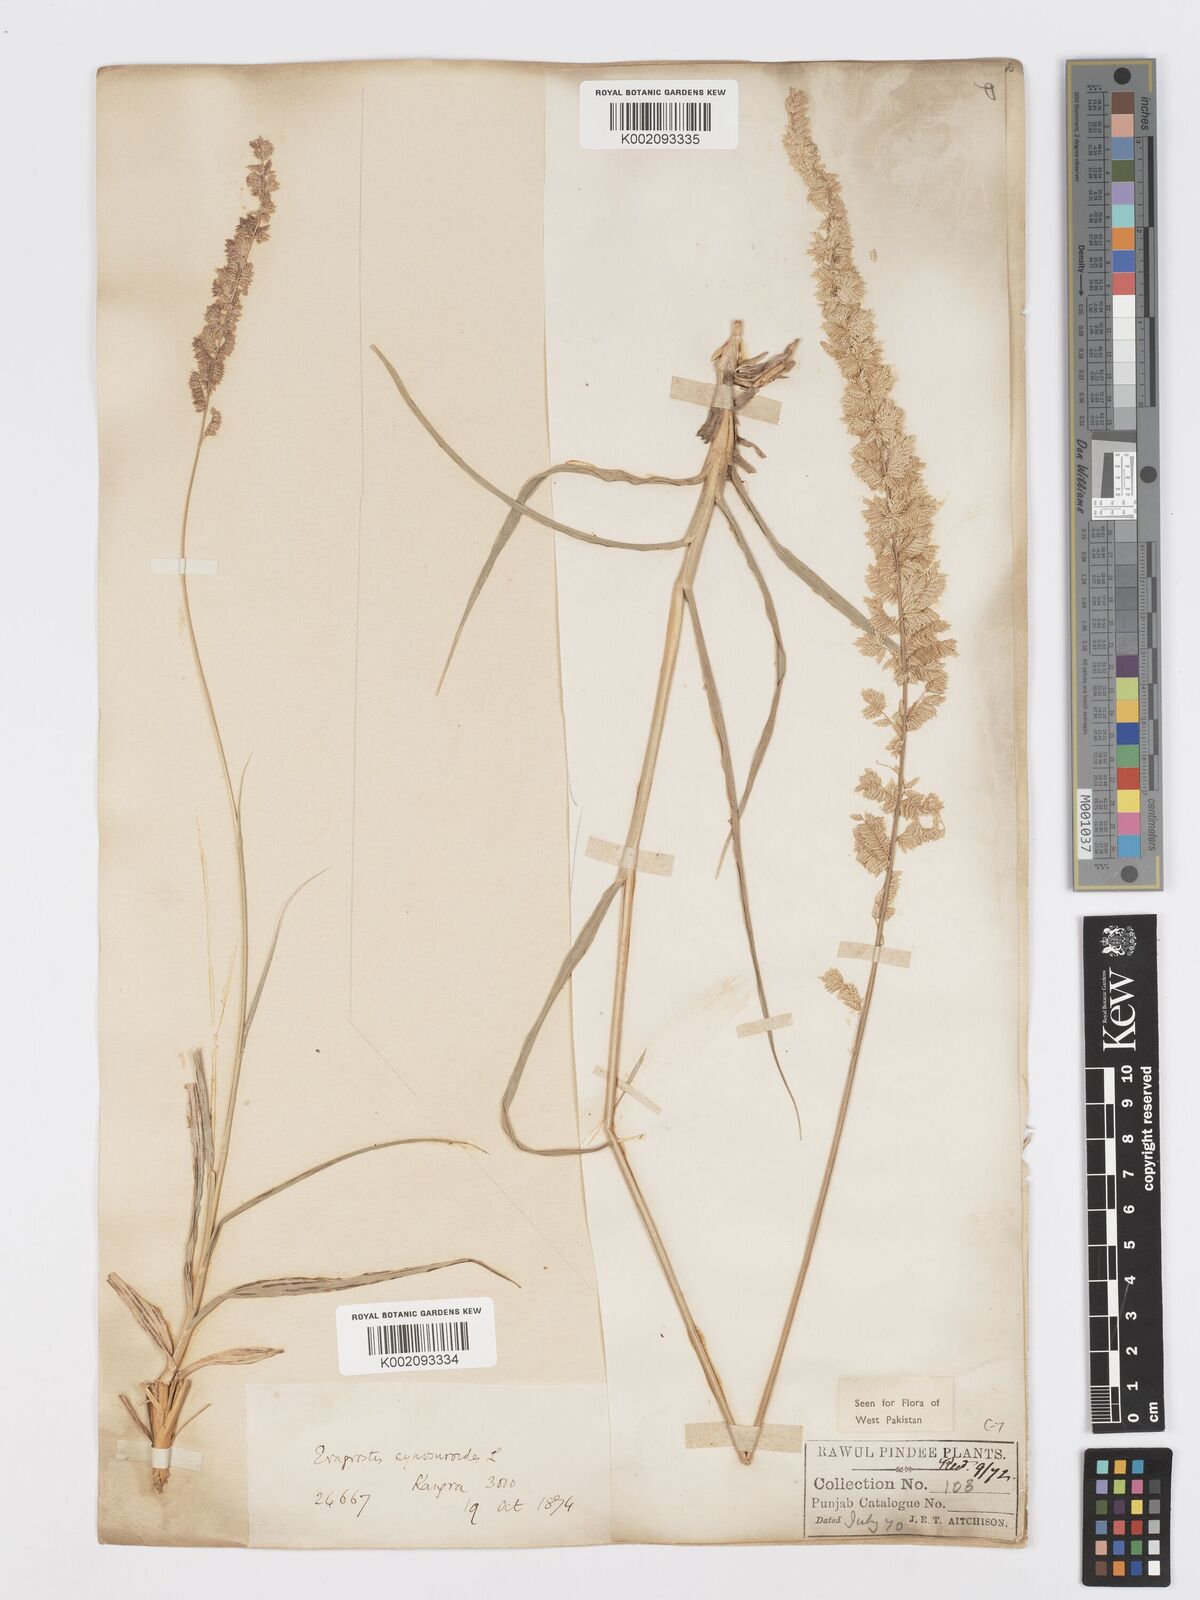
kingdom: Plantae
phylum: Tracheophyta
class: Liliopsida
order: Poales
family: Poaceae
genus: Desmostachya
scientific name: Desmostachya bipinnata
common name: Crowfoot grass
